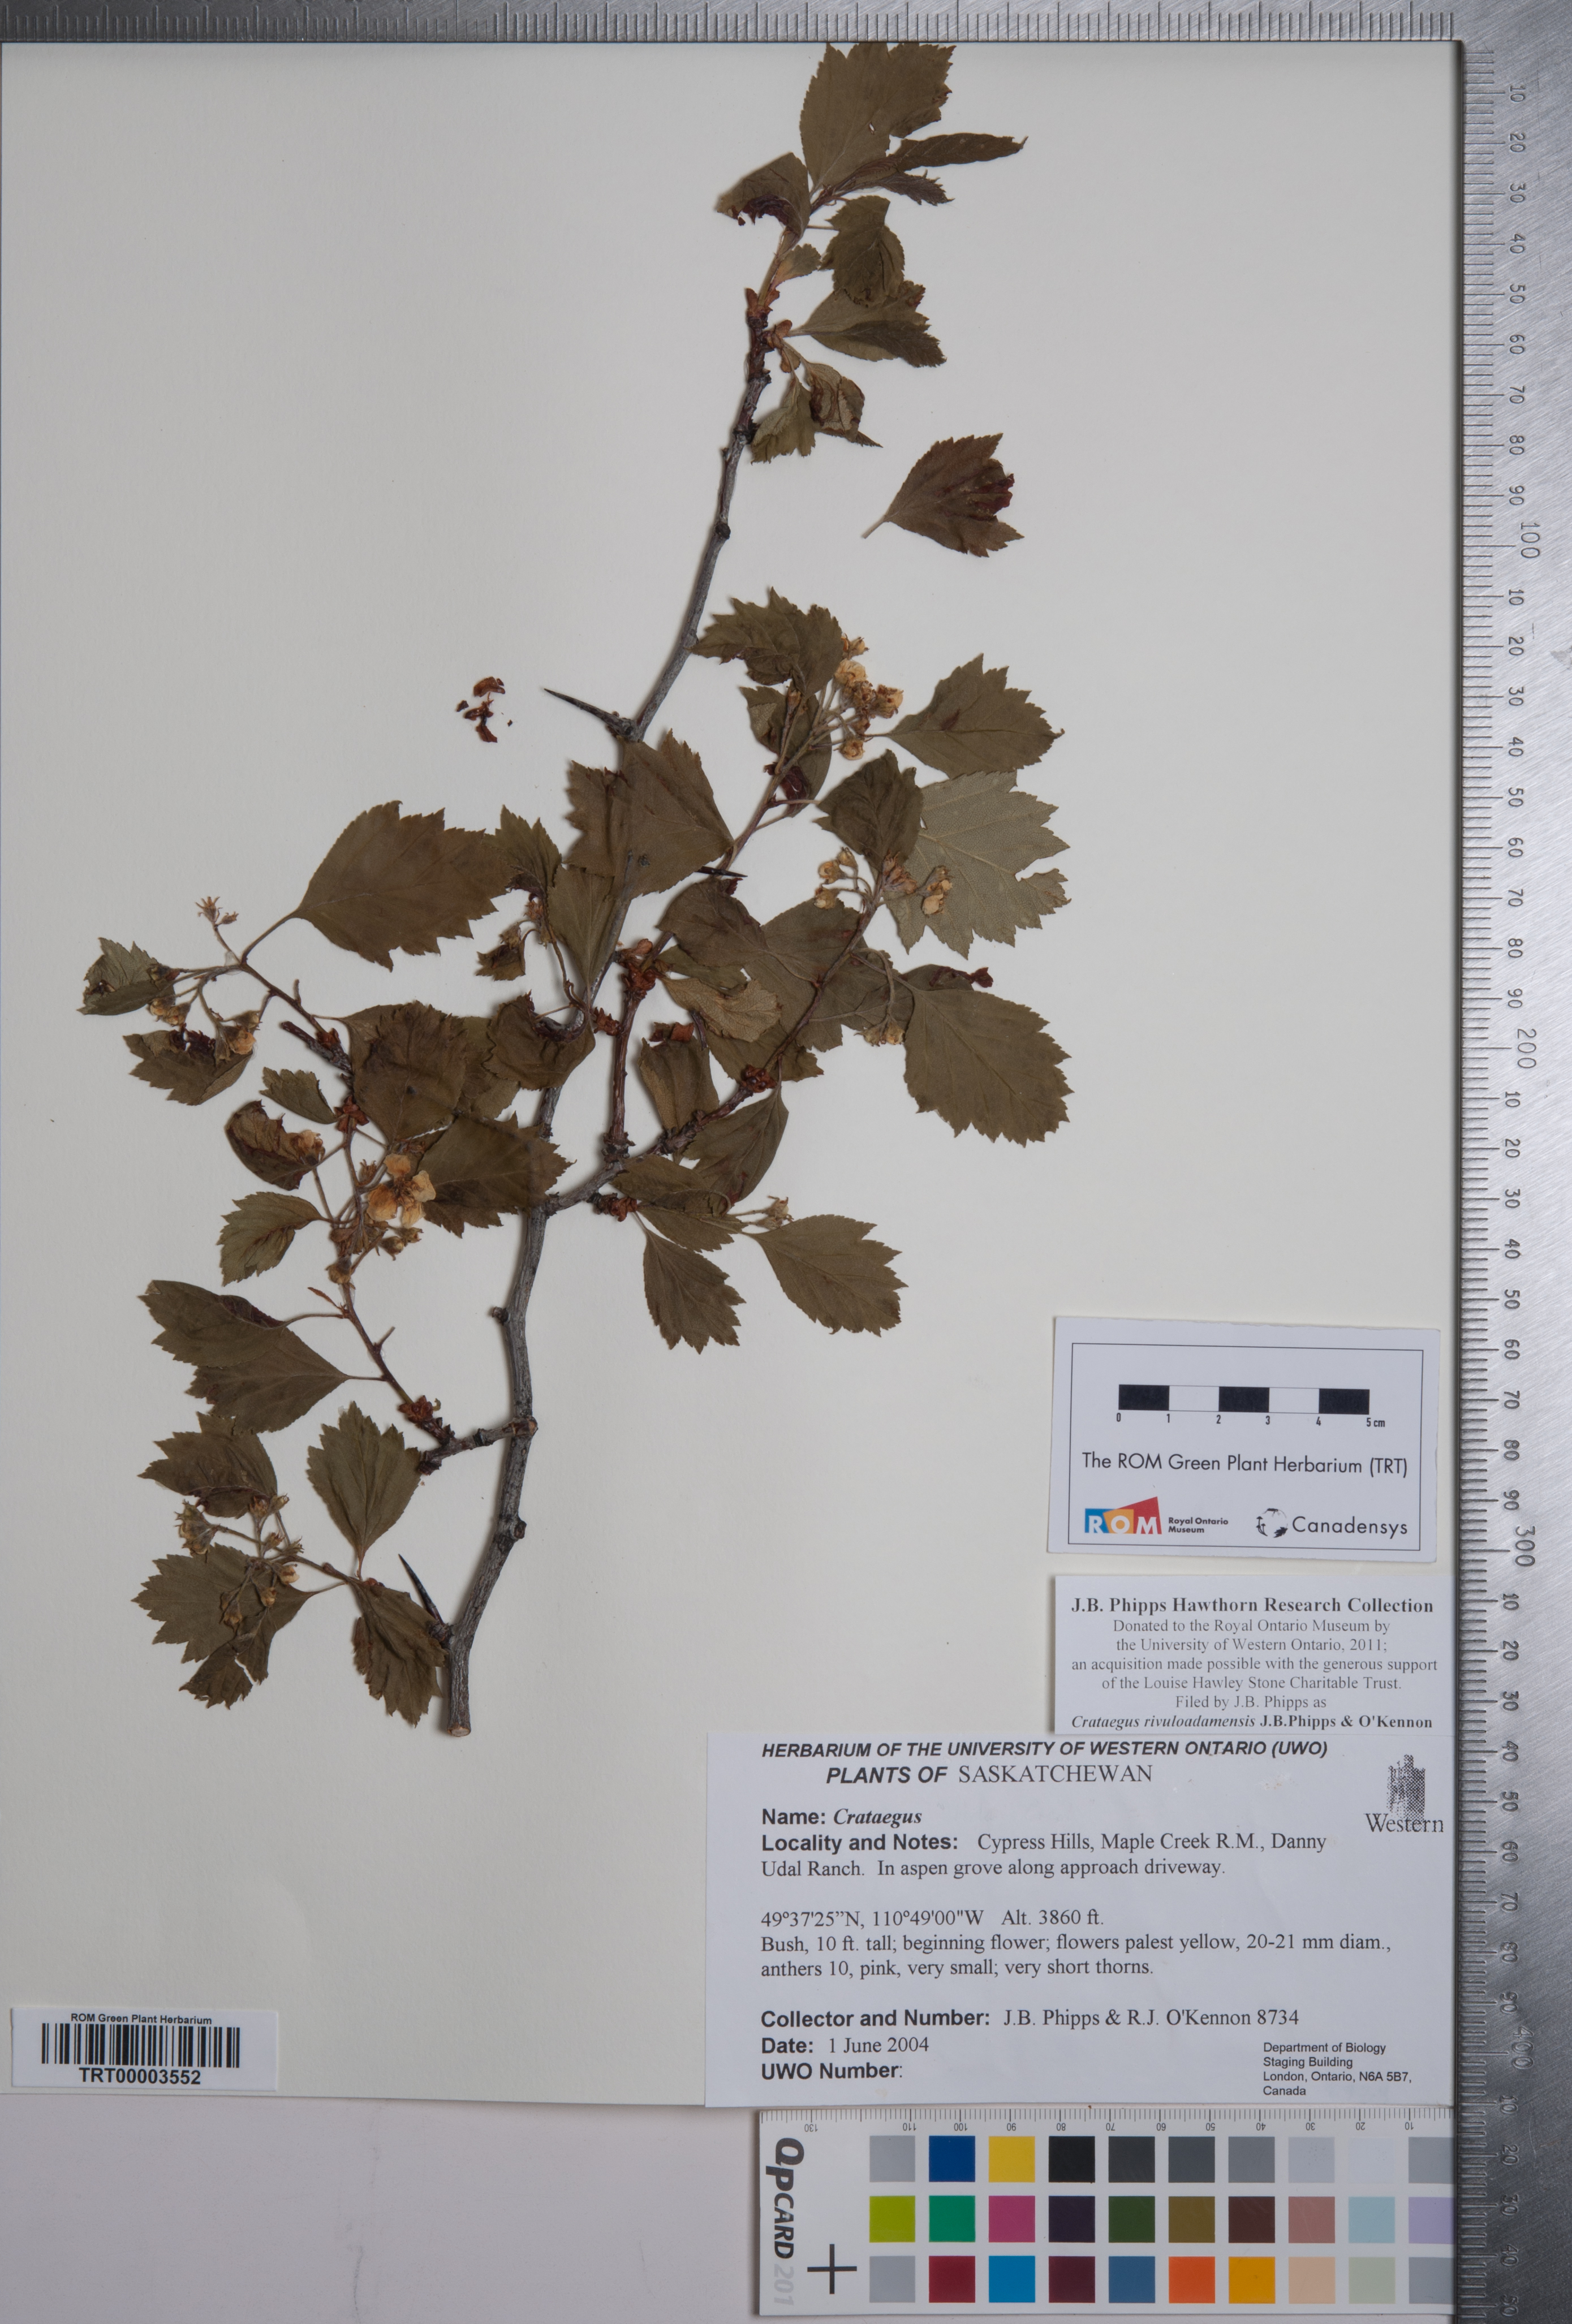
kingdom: Plantae
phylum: Tracheophyta
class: Magnoliopsida
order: Rosales
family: Rosaceae
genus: Crataegus
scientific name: Crataegus rivuloadamensis
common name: Adams creek hawthorn
